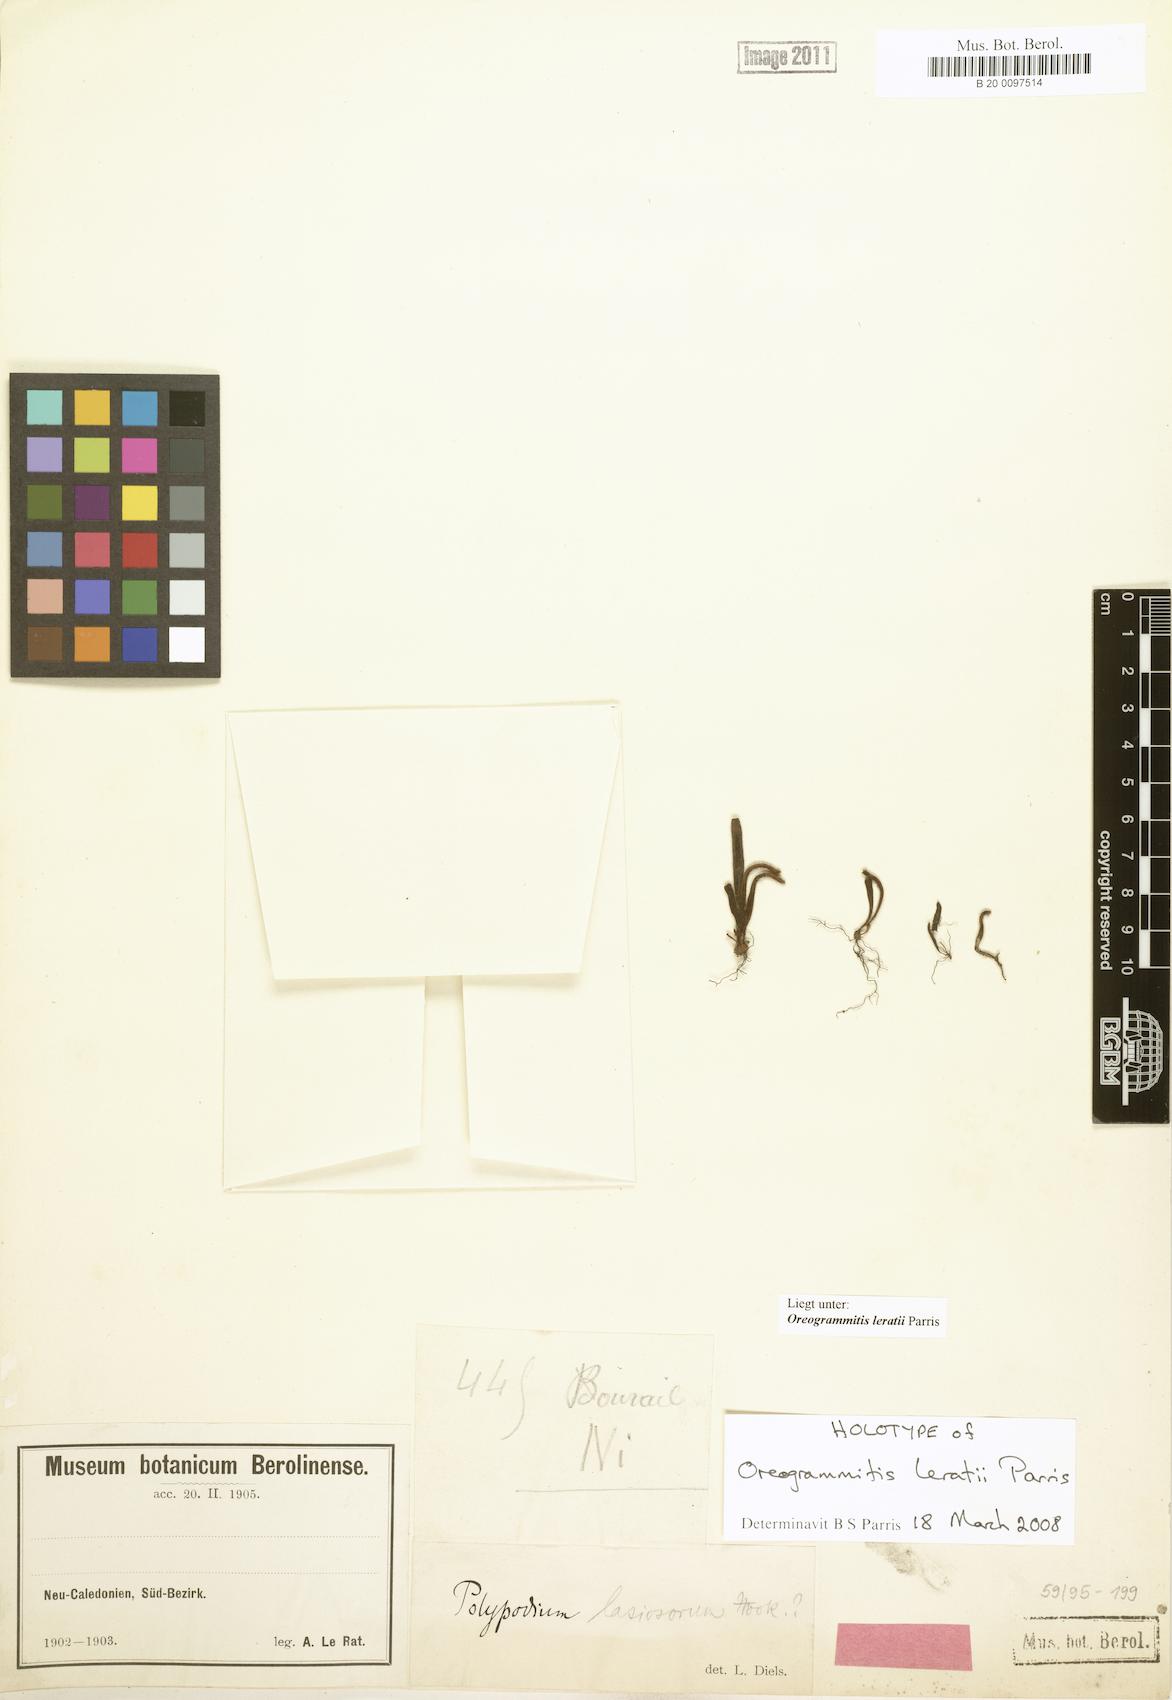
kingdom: Plantae
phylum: Tracheophyta
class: Polypodiopsida
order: Polypodiales
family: Polypodiaceae
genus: Oreogrammitis
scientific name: Oreogrammitis
